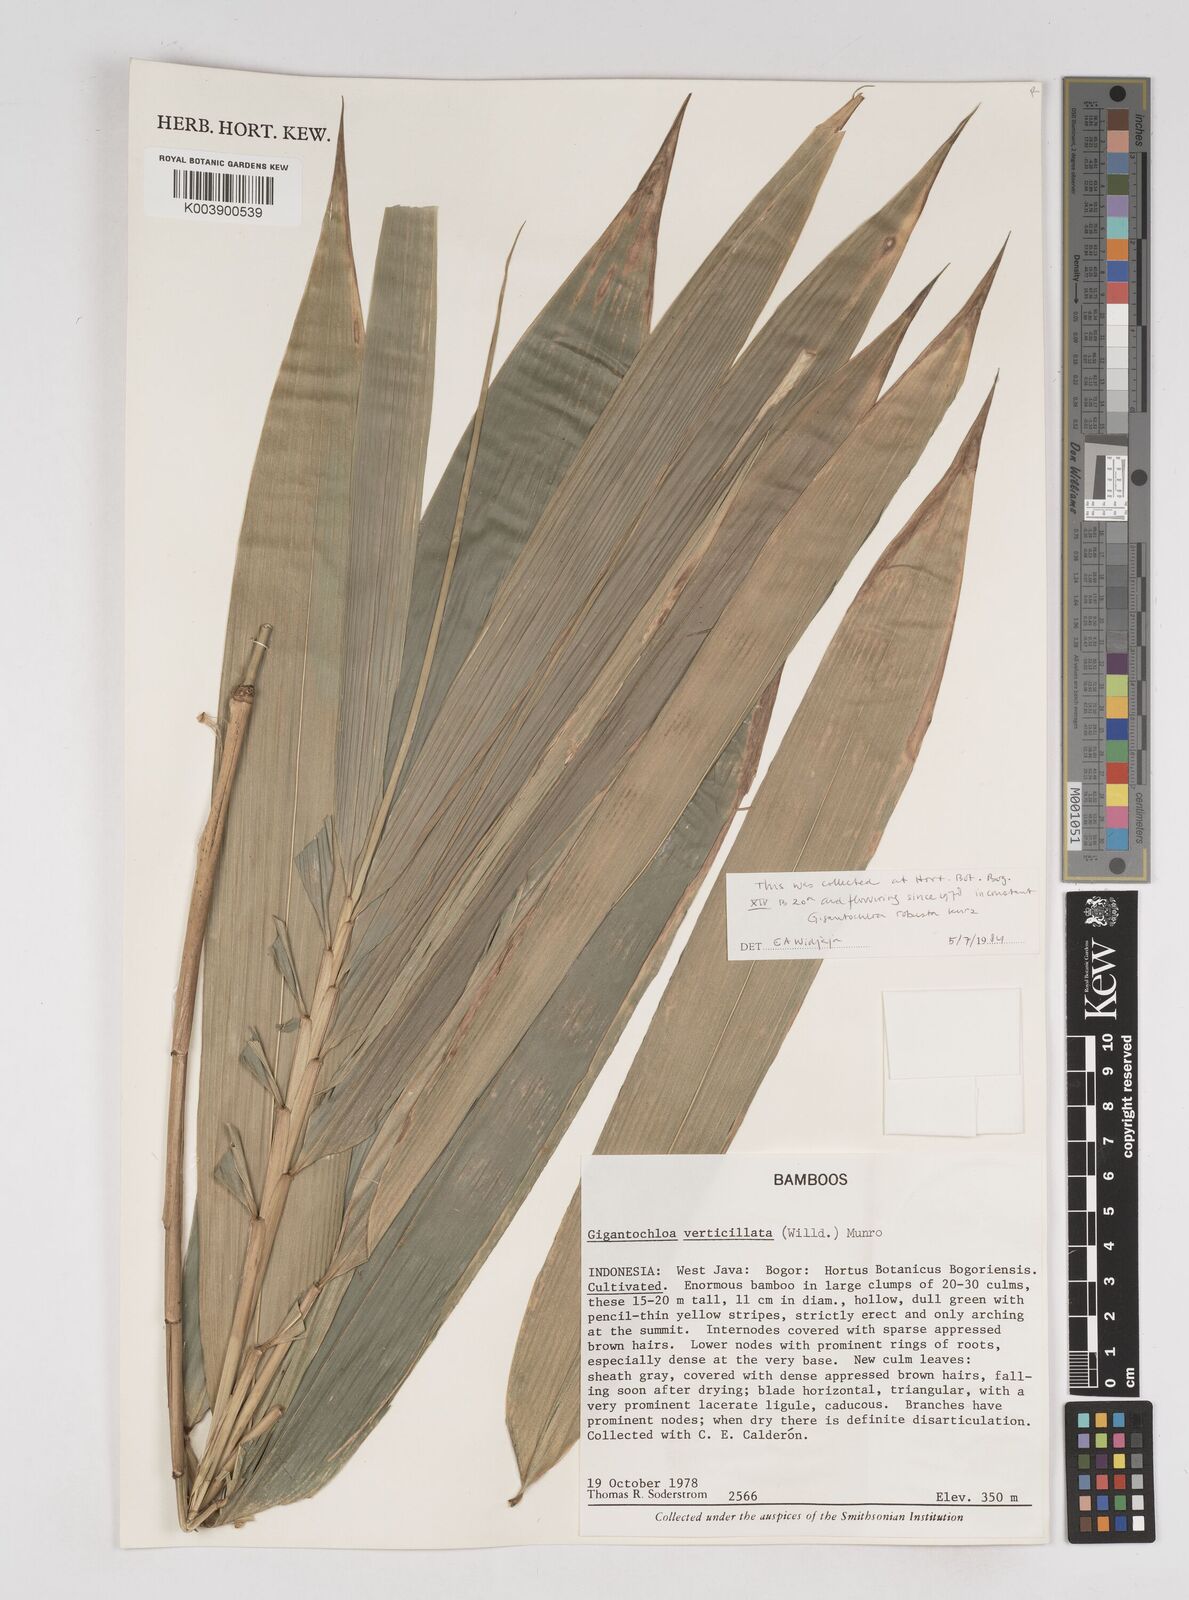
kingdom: Plantae
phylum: Tracheophyta
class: Liliopsida
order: Poales
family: Poaceae
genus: Gigantochloa
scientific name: Gigantochloa robusta
